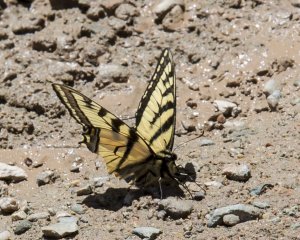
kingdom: Animalia
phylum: Arthropoda
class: Insecta
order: Lepidoptera
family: Papilionidae
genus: Pterourus
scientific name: Pterourus canadensis
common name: Canadian Tiger Swallowtail
